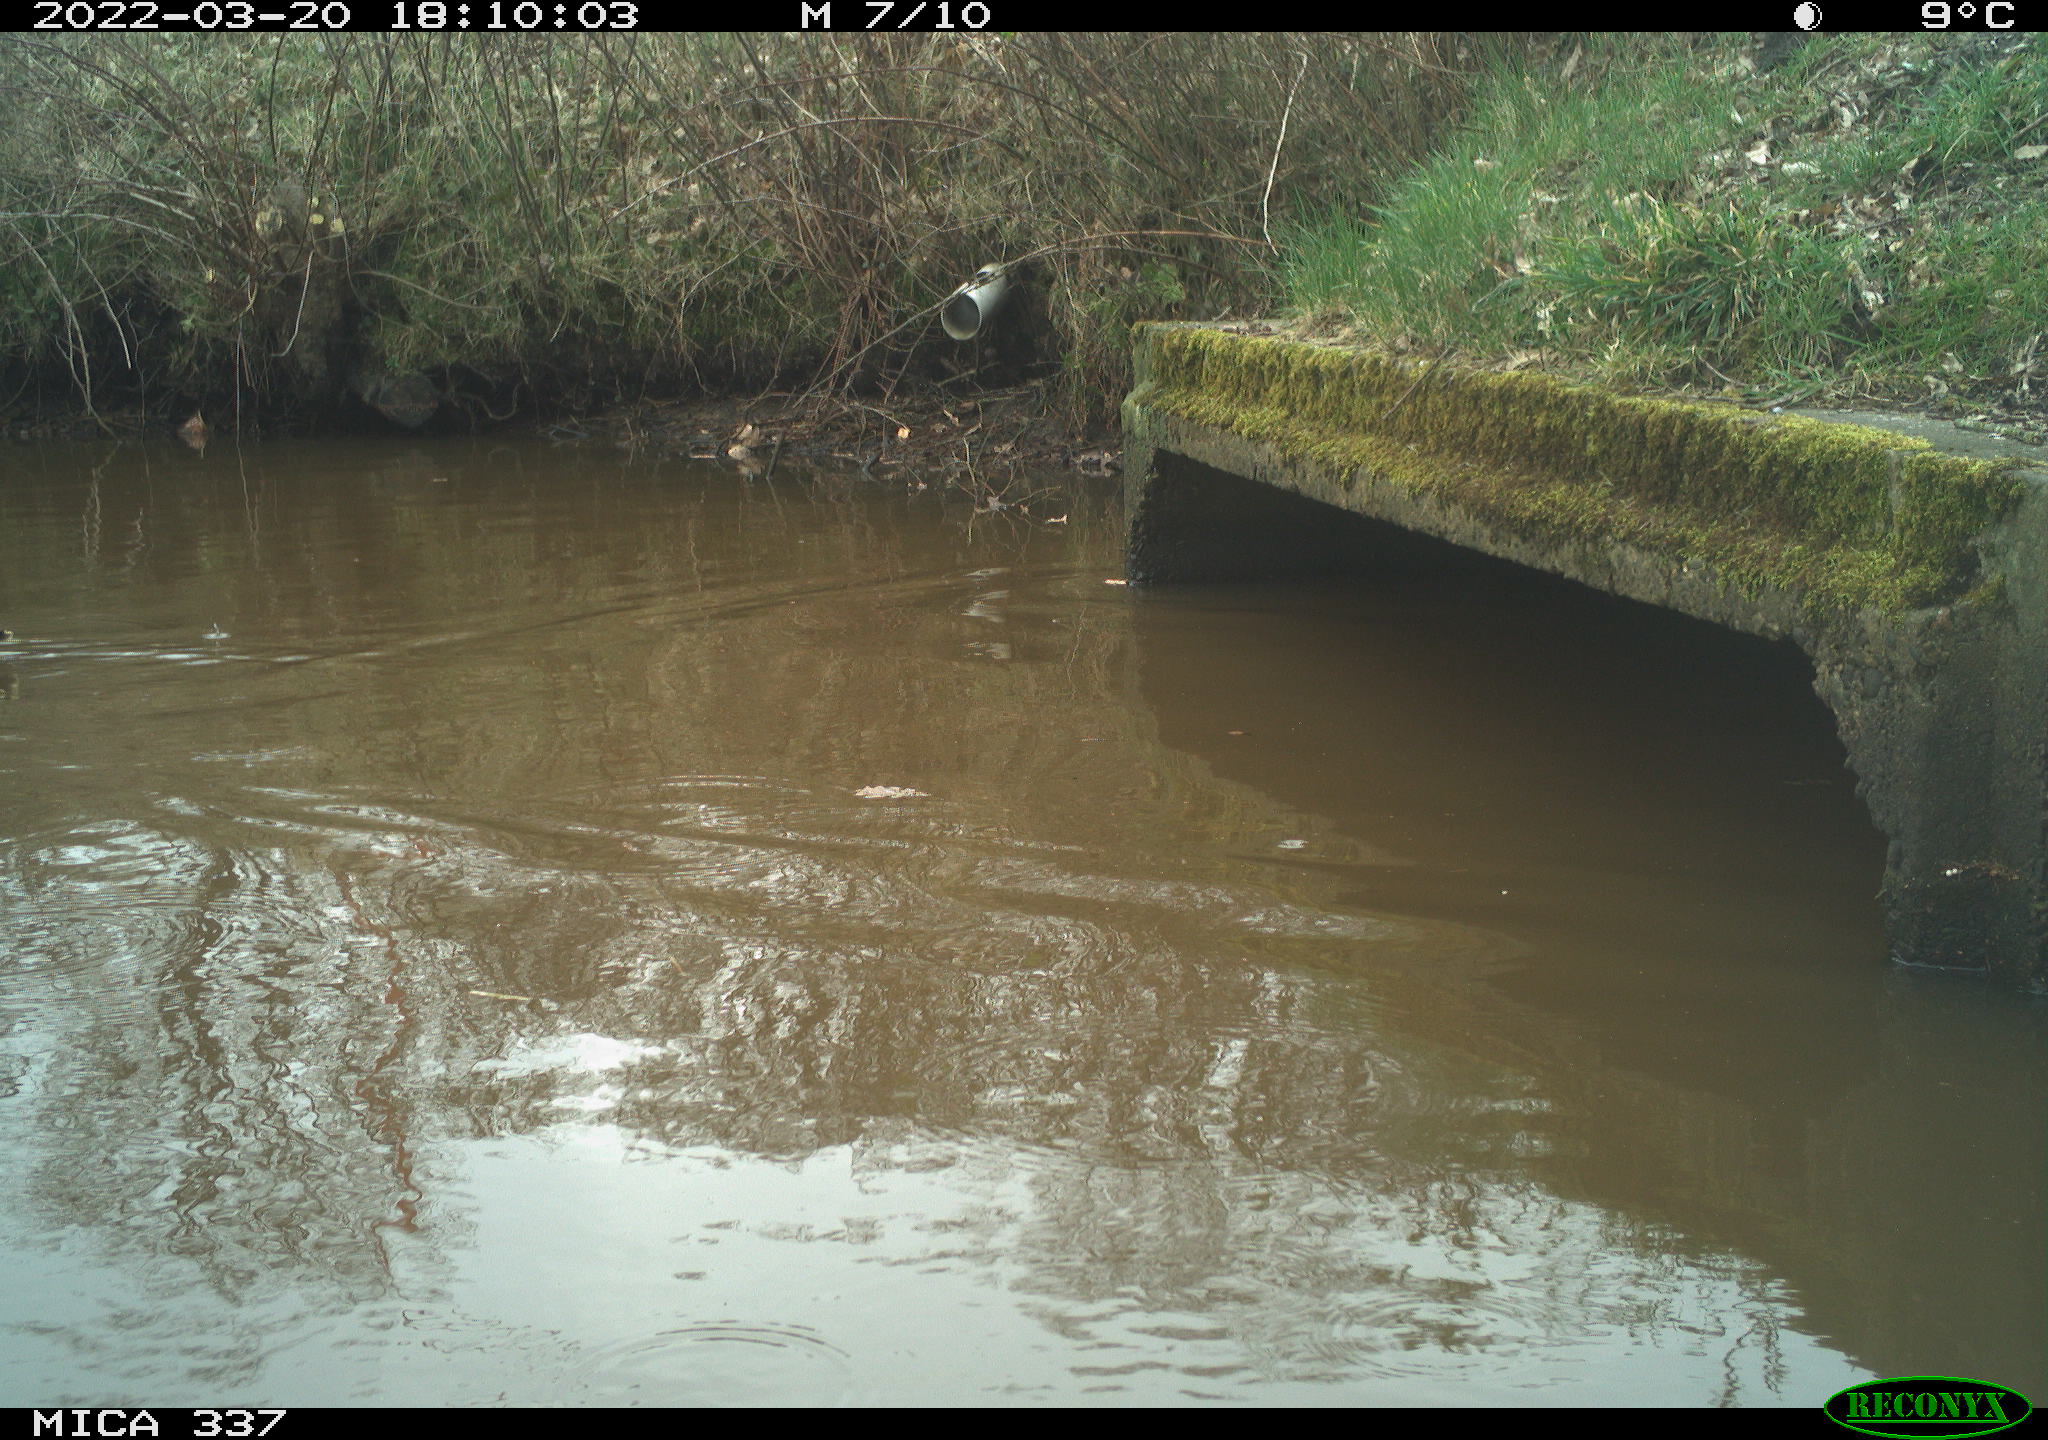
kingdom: Animalia
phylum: Chordata
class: Aves
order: Anseriformes
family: Anatidae
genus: Anas
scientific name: Anas platyrhynchos
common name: Mallard
